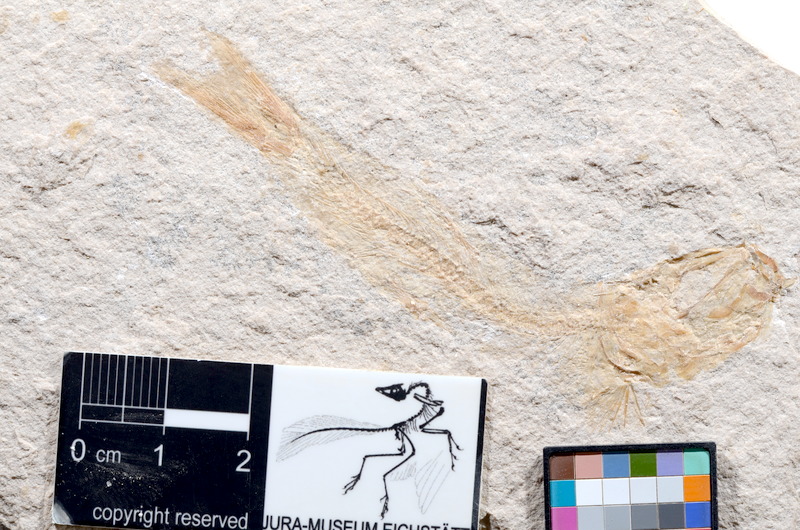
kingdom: Animalia
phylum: Chordata
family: Ascalaboidae
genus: Tharsis
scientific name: Tharsis dubius
